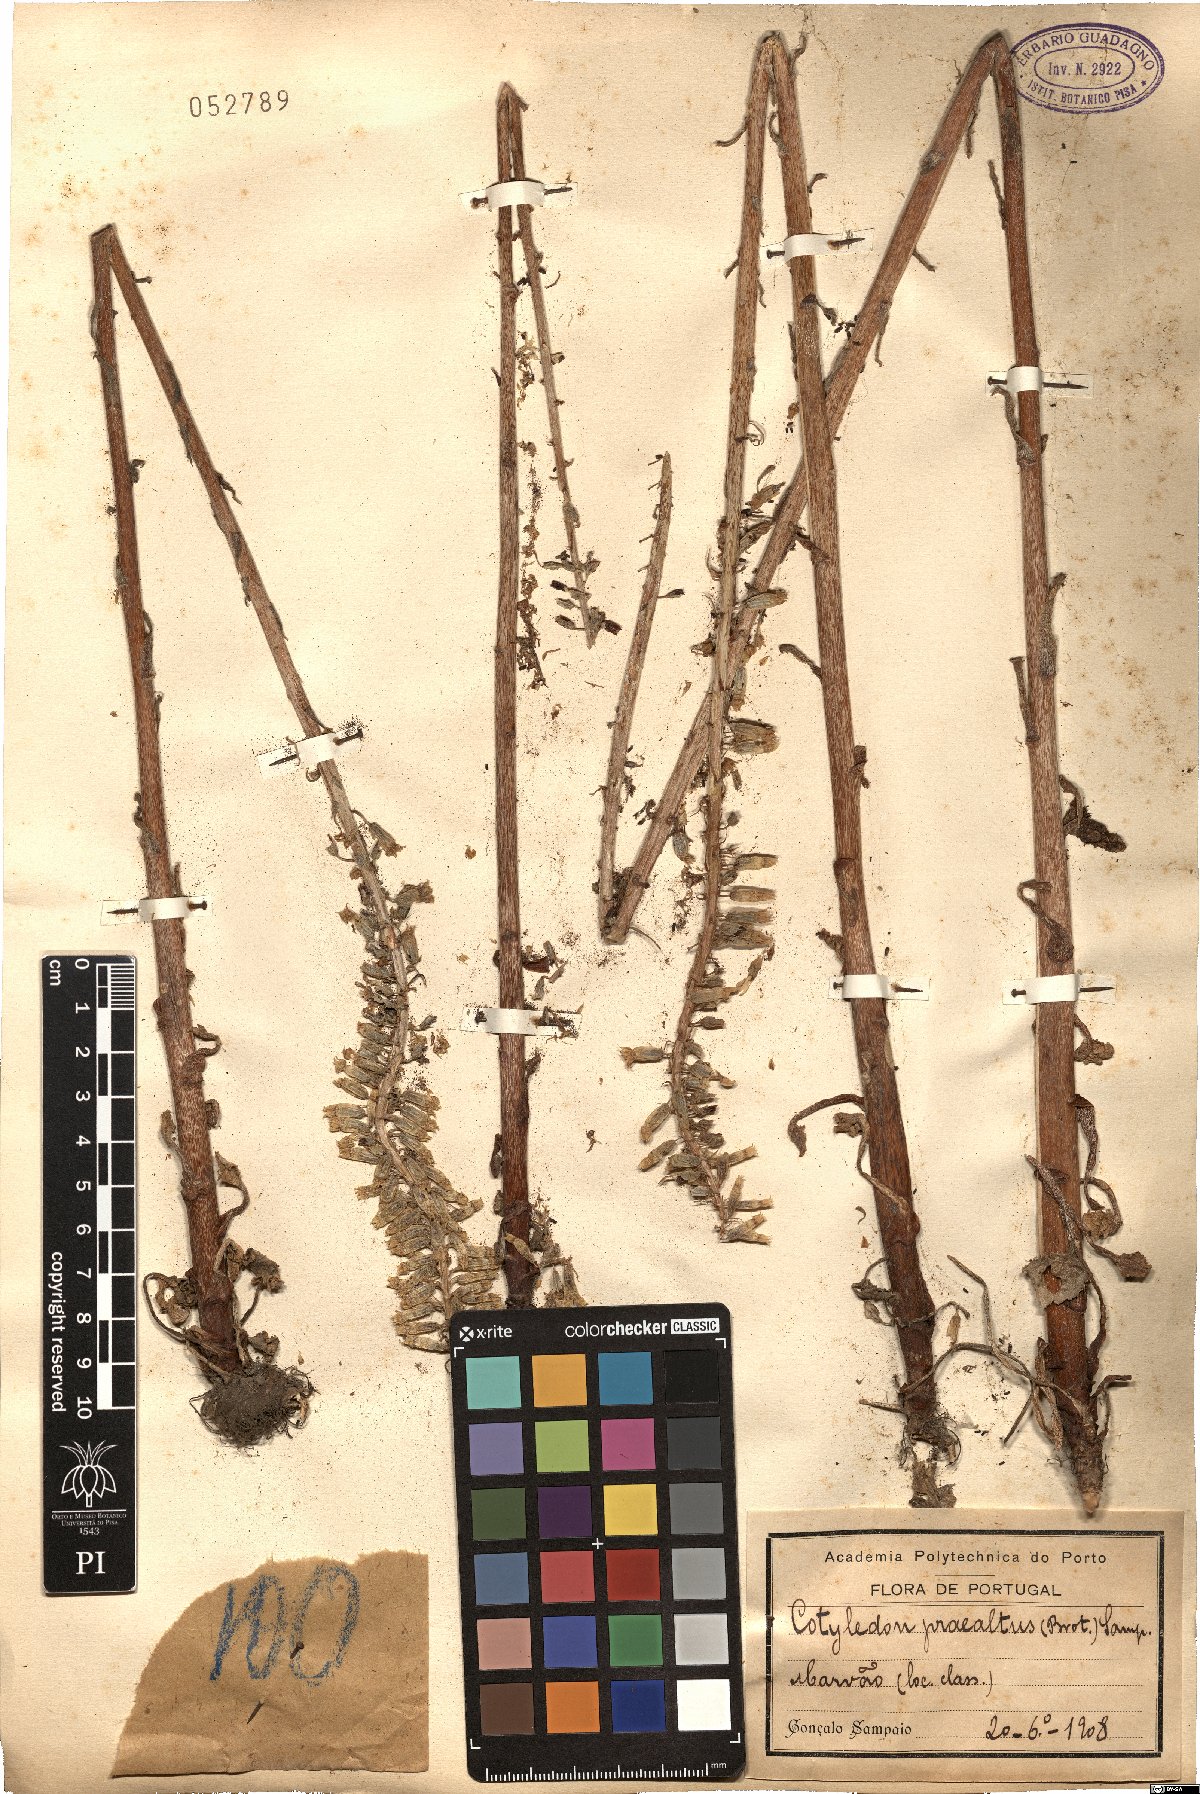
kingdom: Plantae
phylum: Tracheophyta
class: Magnoliopsida
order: Saxifragales
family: Crassulaceae
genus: Umbilicus
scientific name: Umbilicus heylandianus
